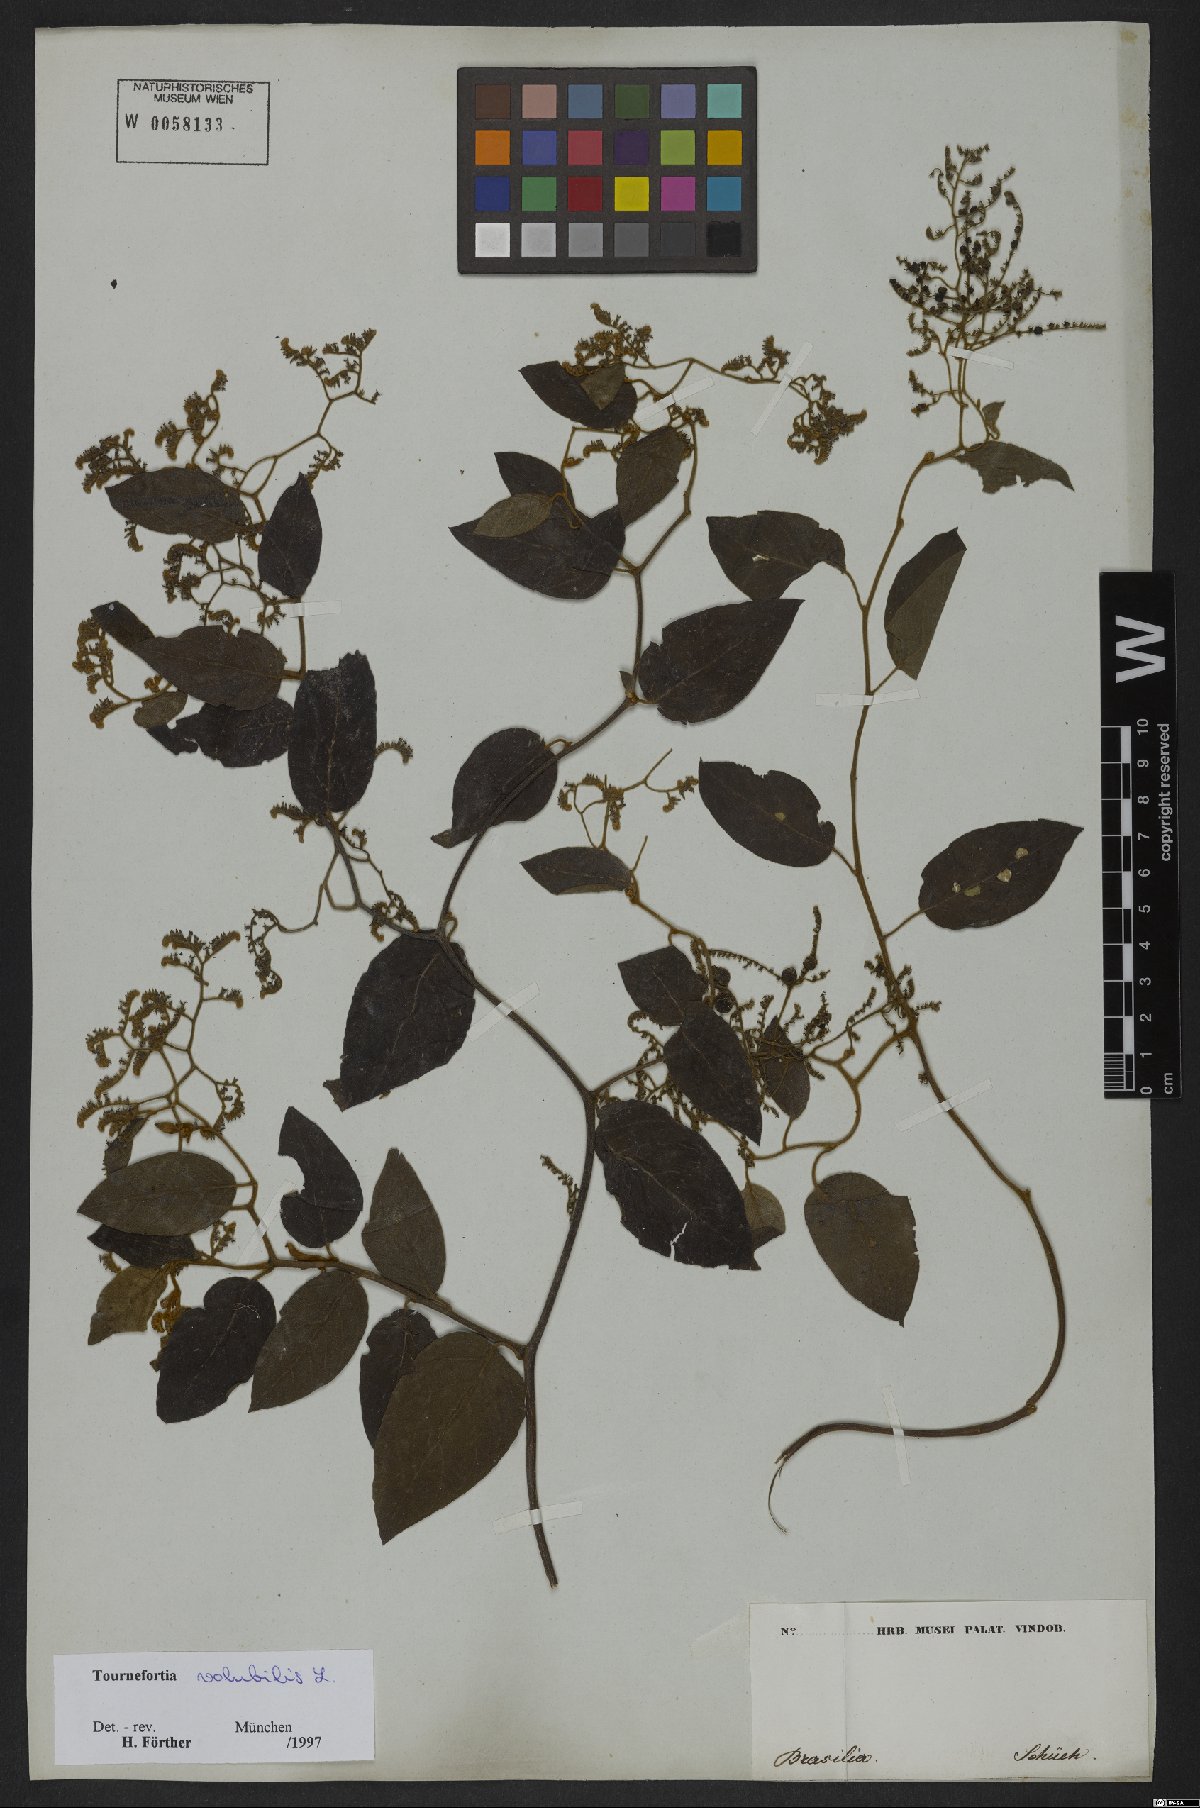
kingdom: Plantae
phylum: Tracheophyta
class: Magnoliopsida
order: Boraginales
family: Heliotropiaceae
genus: Myriopus
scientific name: Myriopus volubilis
